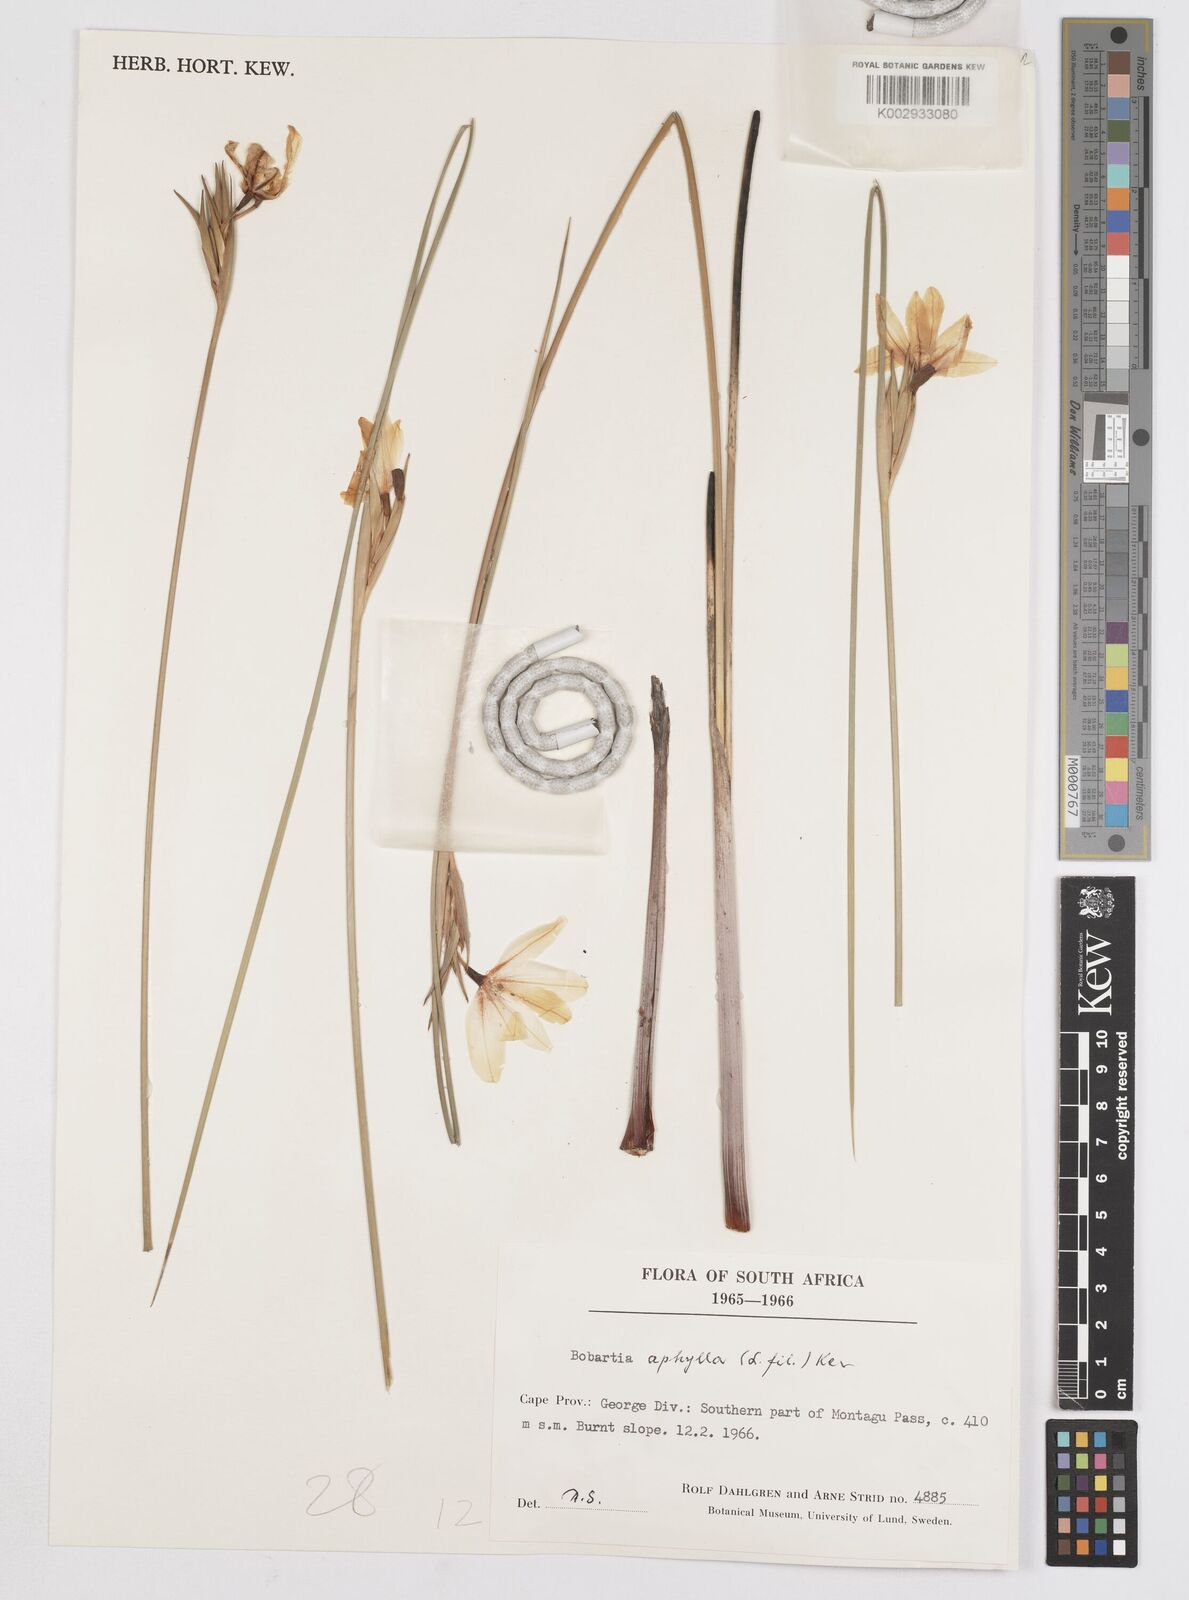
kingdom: Plantae
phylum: Tracheophyta
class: Liliopsida
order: Asparagales
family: Iridaceae
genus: Bobartia
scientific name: Bobartia aphylla
